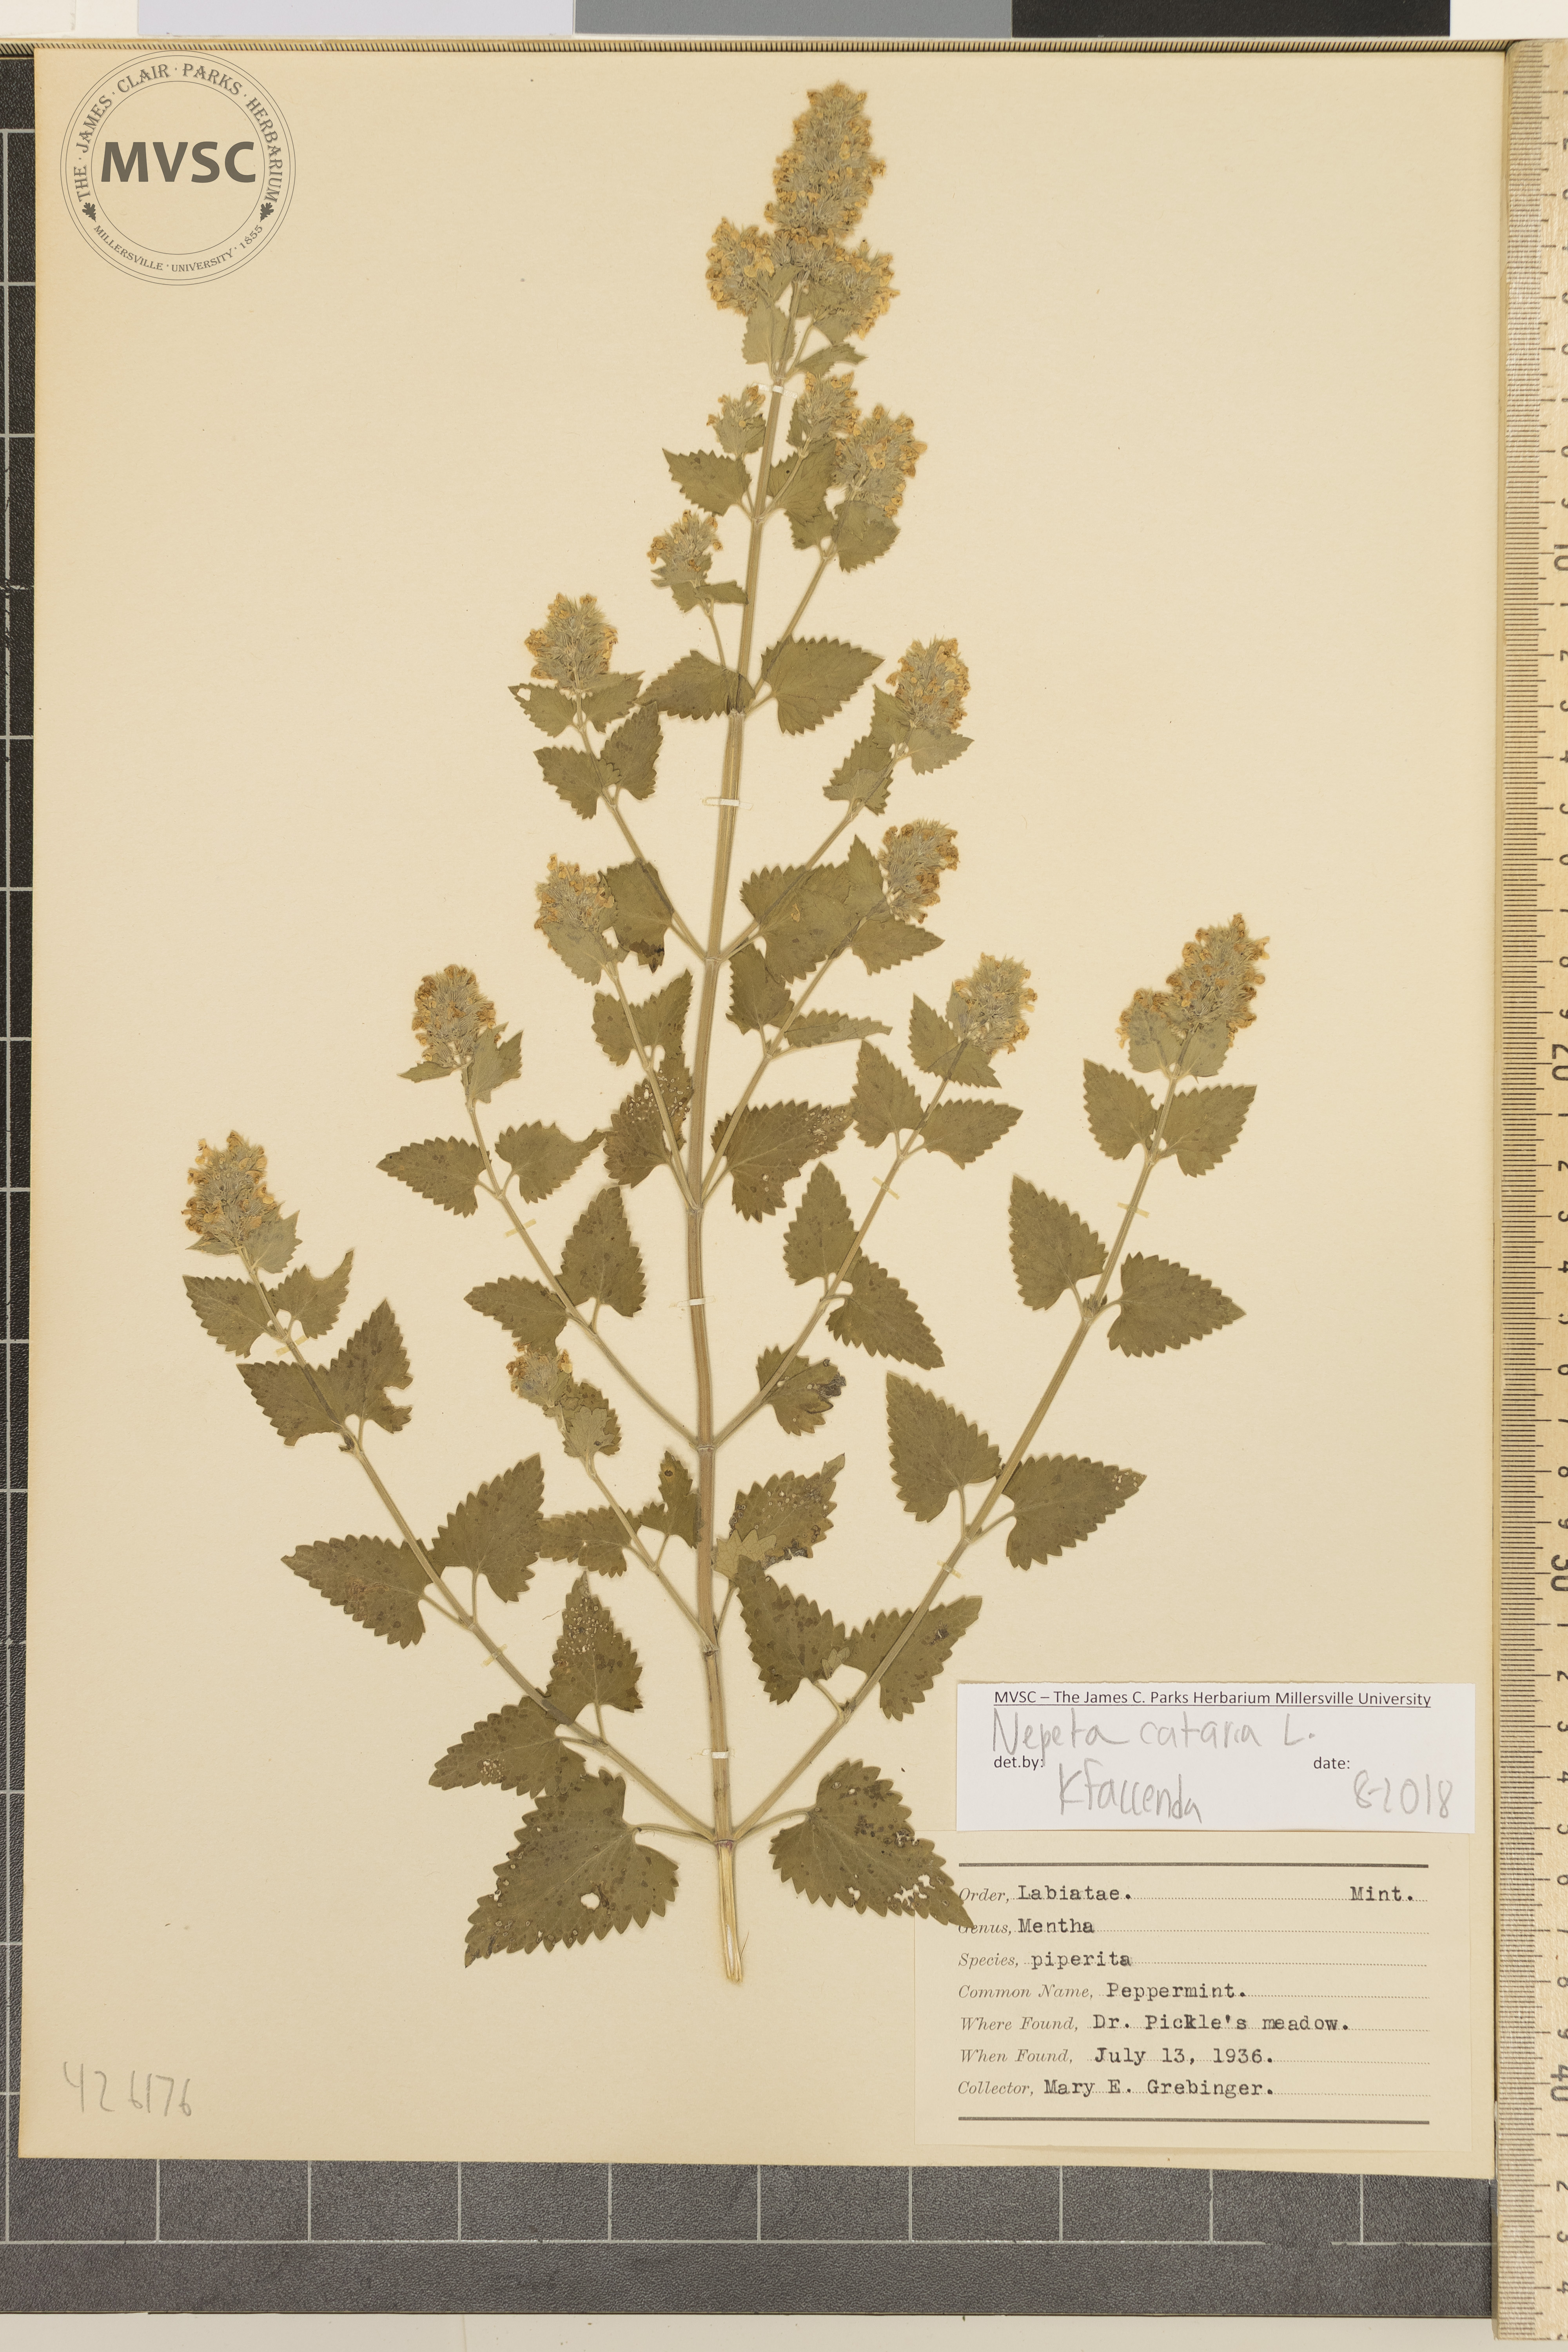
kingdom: Plantae
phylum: Tracheophyta
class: Magnoliopsida
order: Lamiales
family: Lamiaceae
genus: Nepeta
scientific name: Nepeta cataria
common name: Catnip
